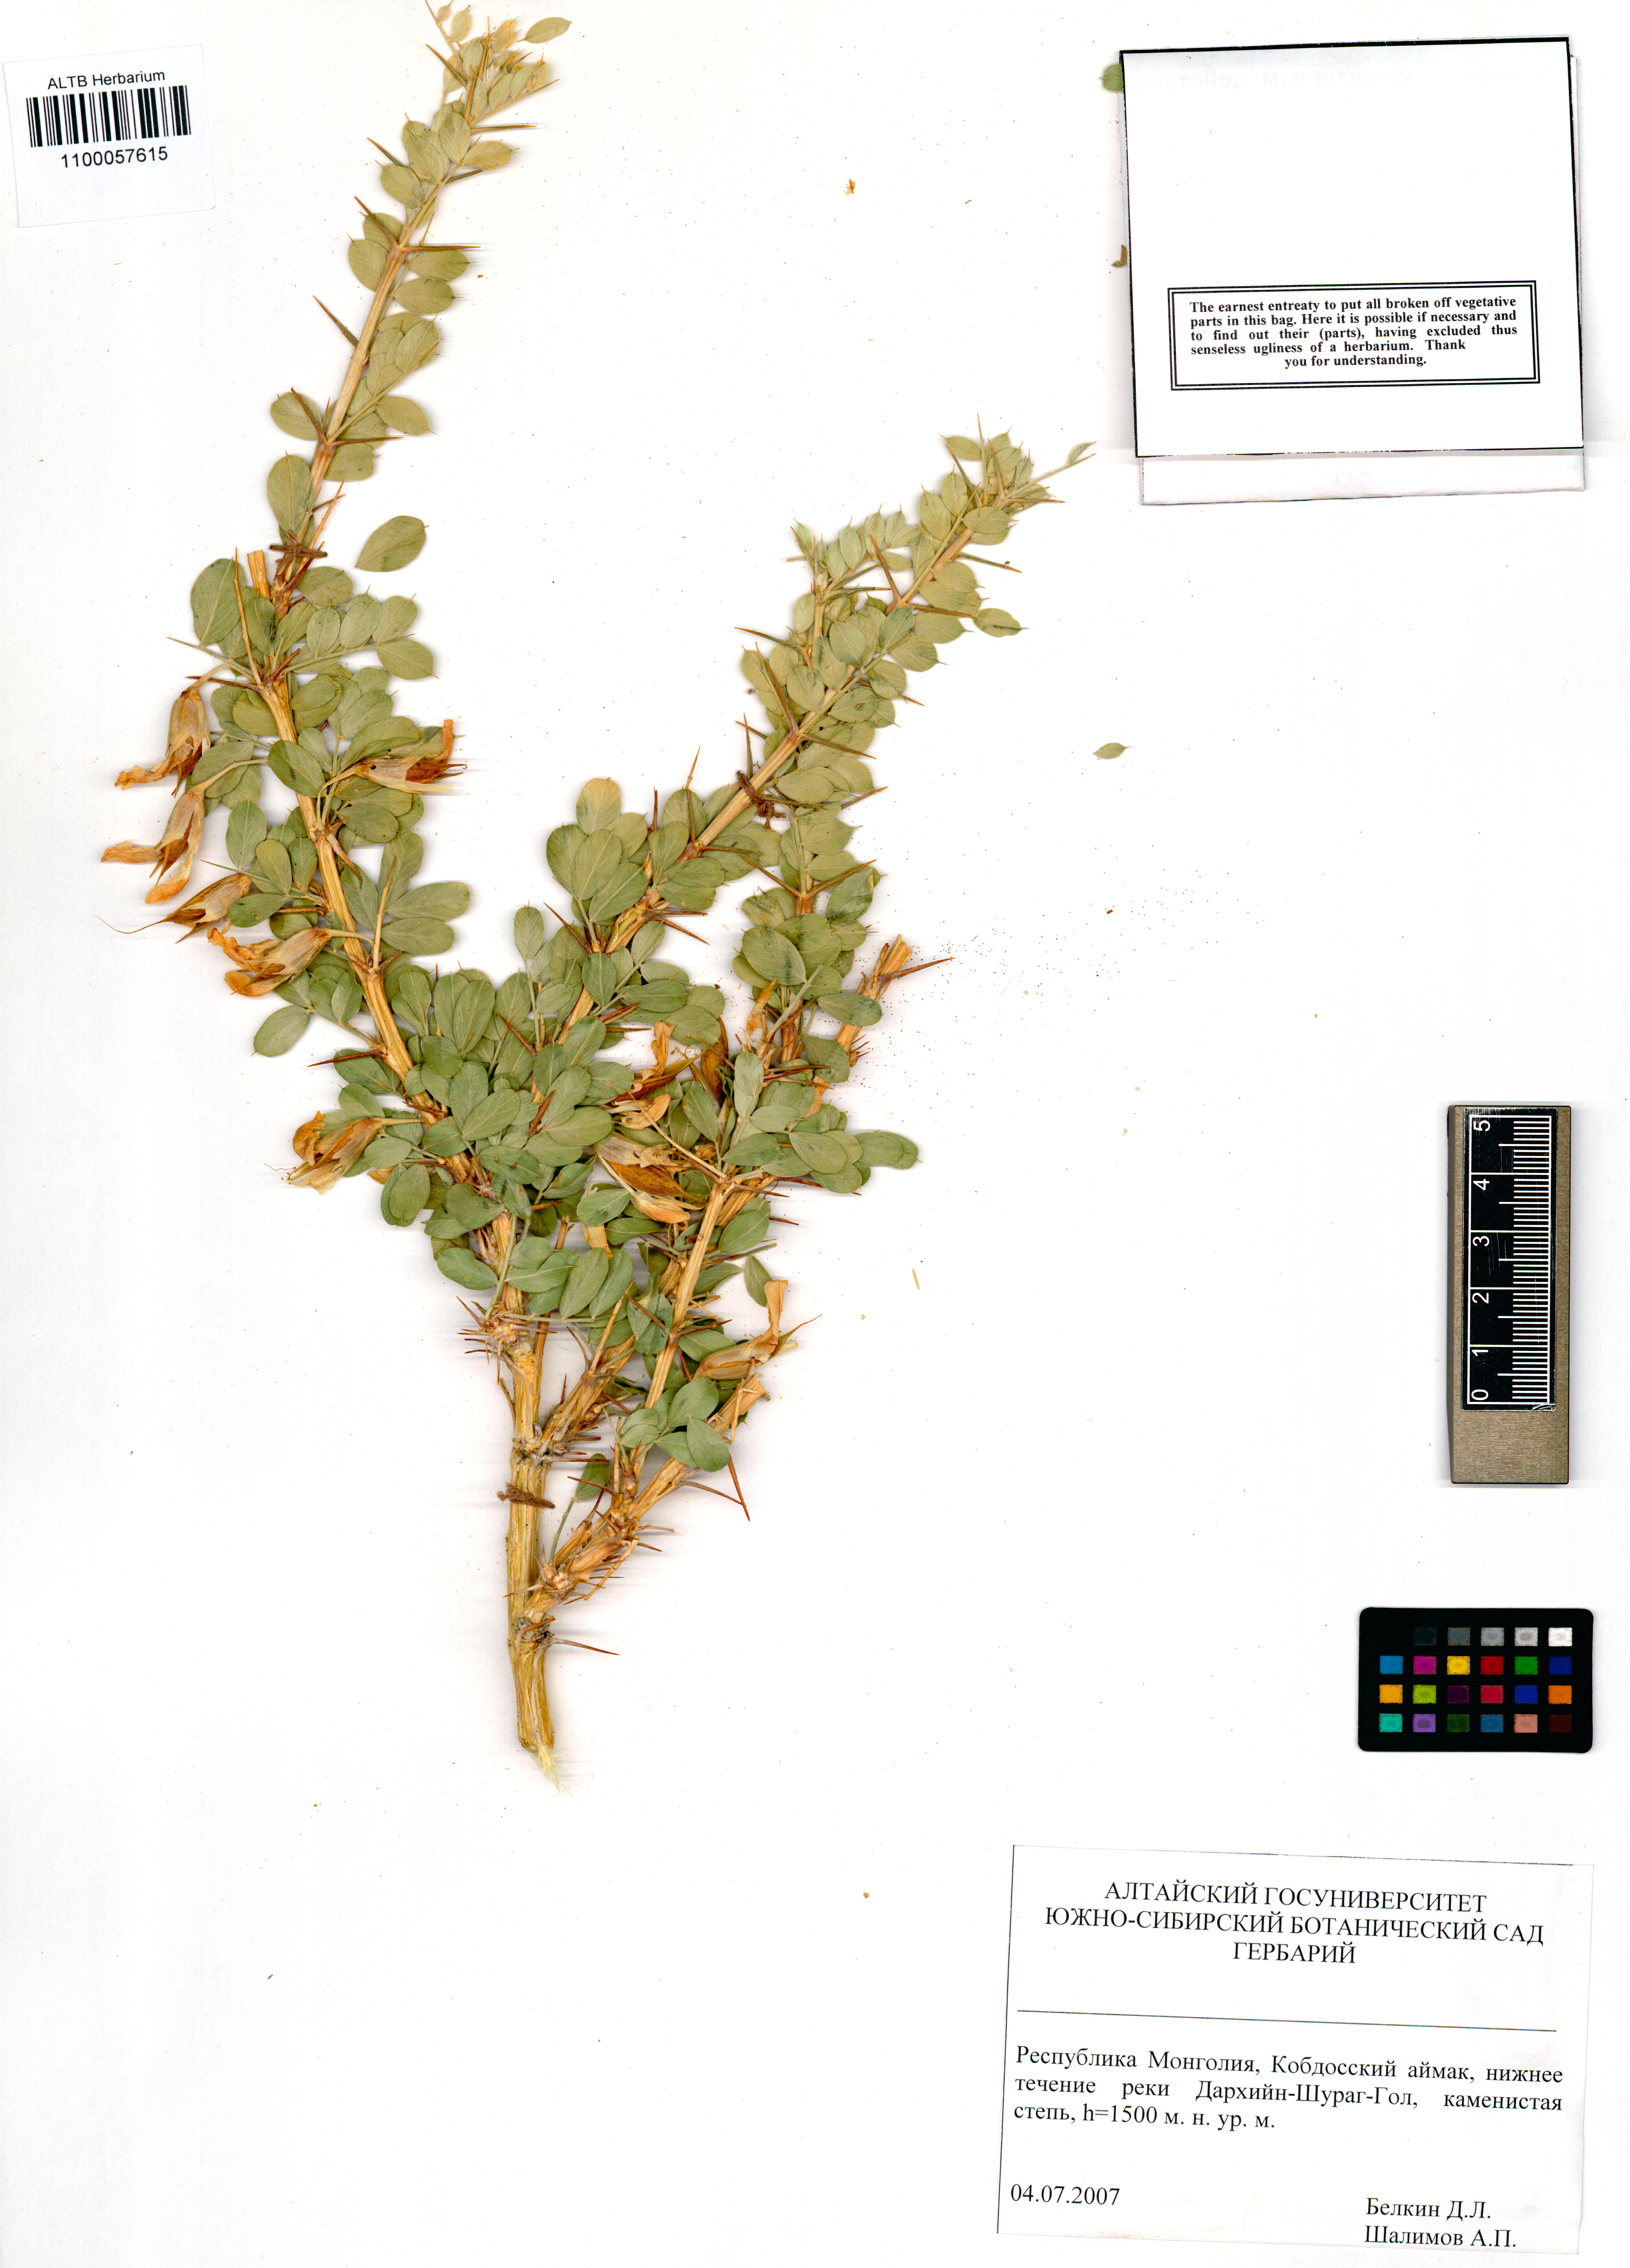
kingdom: Plantae
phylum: Tracheophyta
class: Magnoliopsida
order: Fabales
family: Fabaceae
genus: Caragana
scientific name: Caragana bungei
